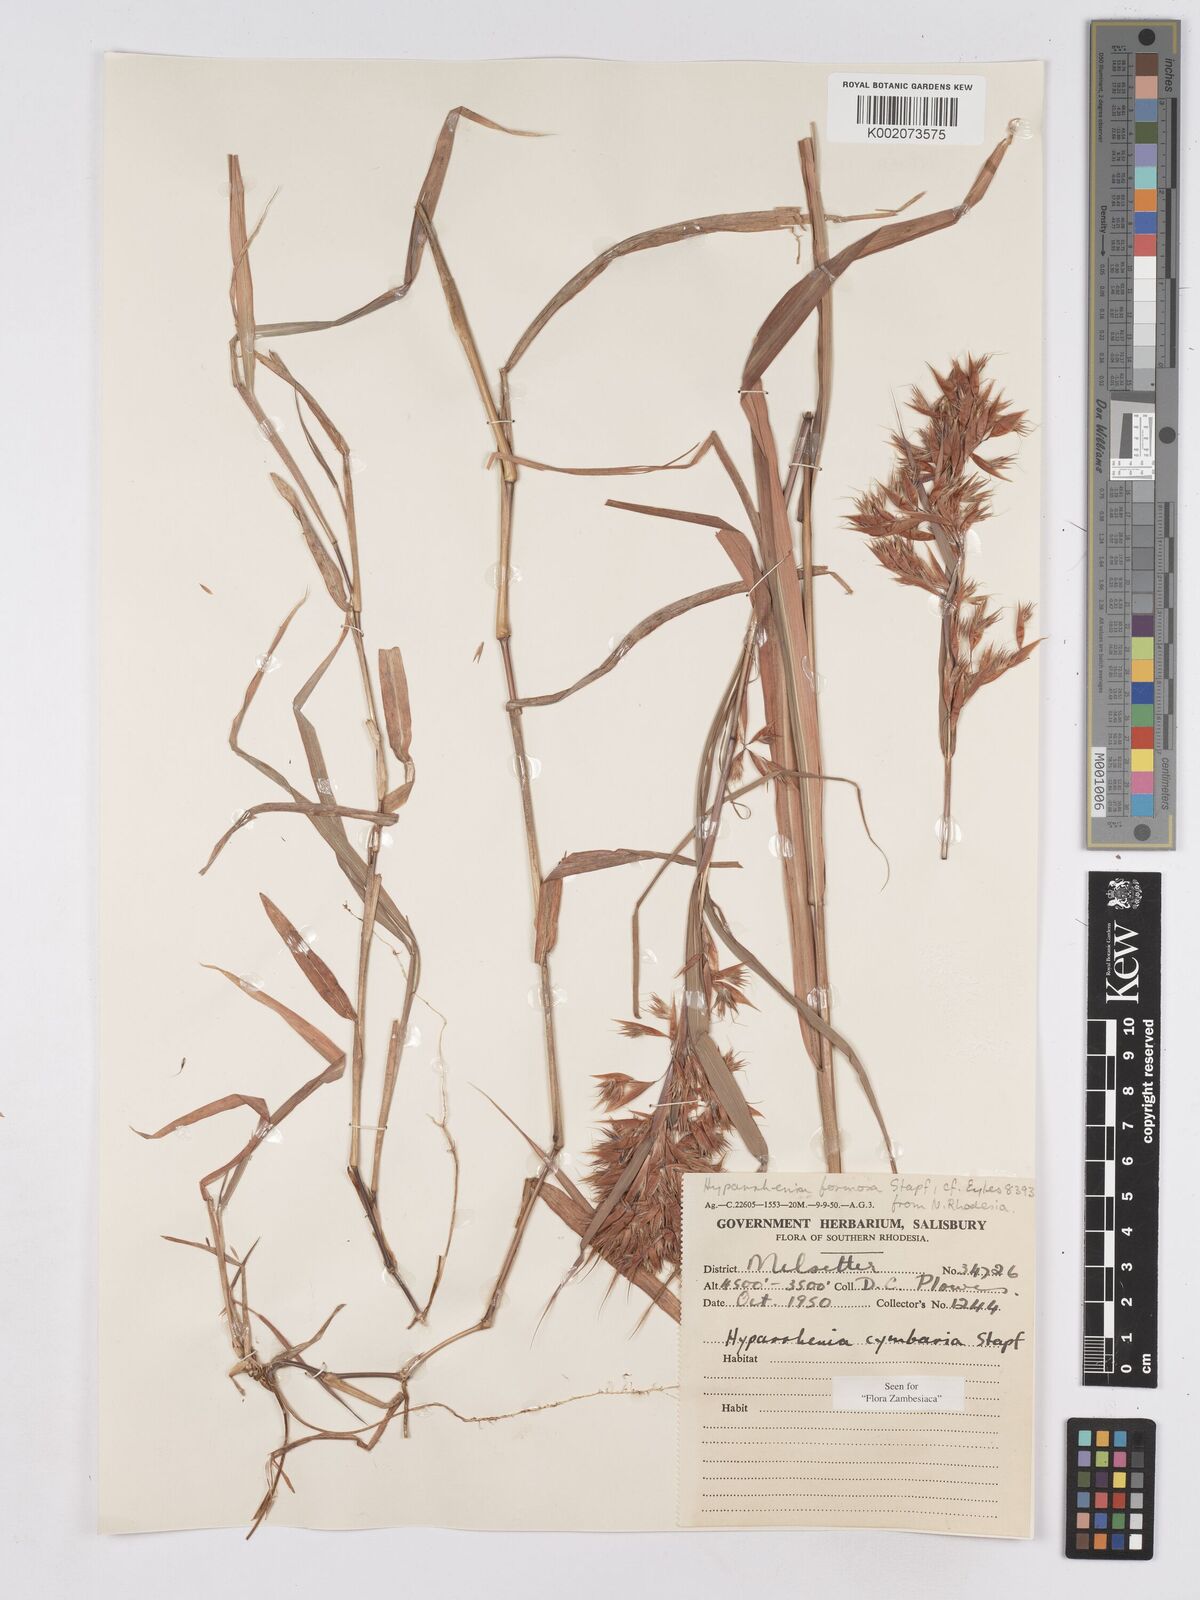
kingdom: Plantae
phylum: Tracheophyta
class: Liliopsida
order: Poales
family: Poaceae
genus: Hyparrhenia
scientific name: Hyparrhenia cymbaria
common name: Boat thatching grass
